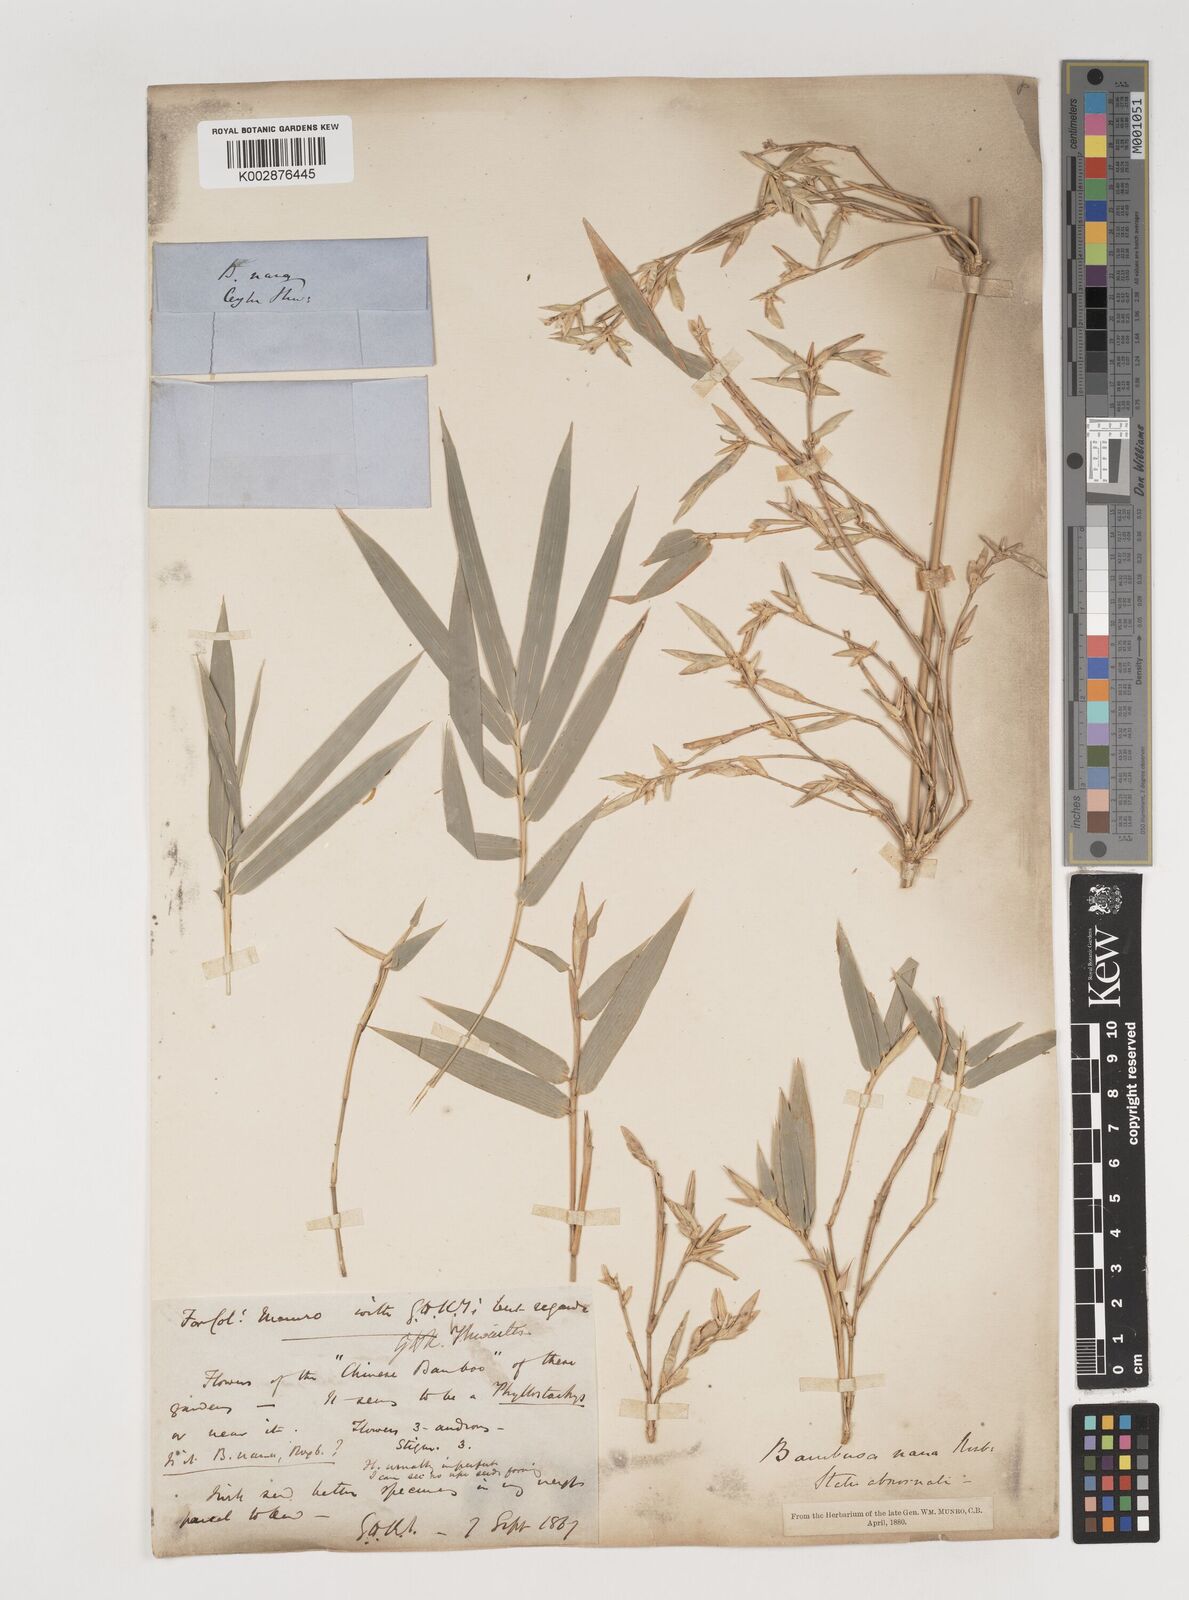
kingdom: Plantae
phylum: Tracheophyta
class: Liliopsida
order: Poales
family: Poaceae
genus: Bambusa
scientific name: Bambusa multiplex
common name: Hedge bamboo
